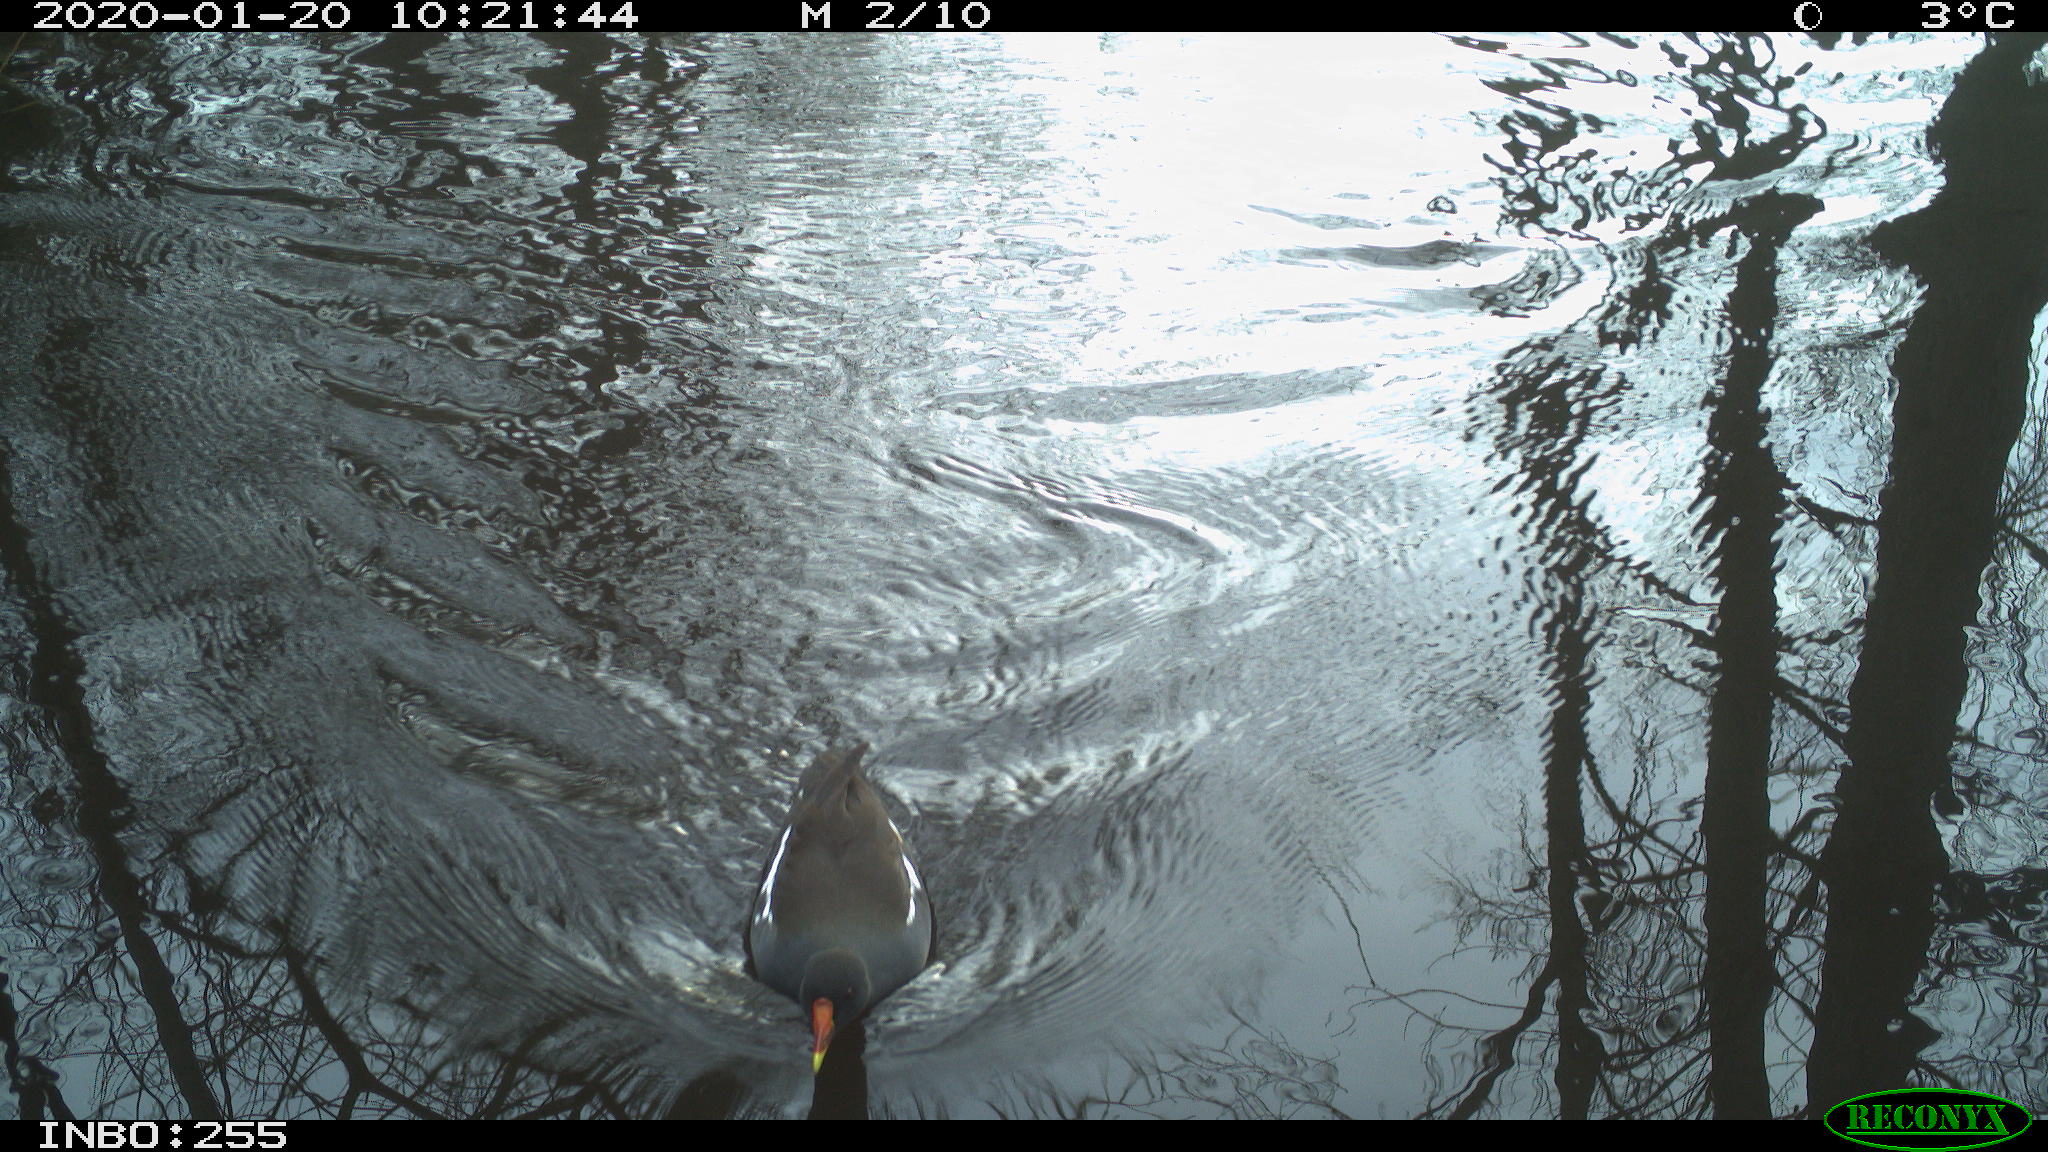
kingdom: Animalia
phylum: Chordata
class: Aves
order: Gruiformes
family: Rallidae
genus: Gallinula
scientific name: Gallinula chloropus
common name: Common moorhen
